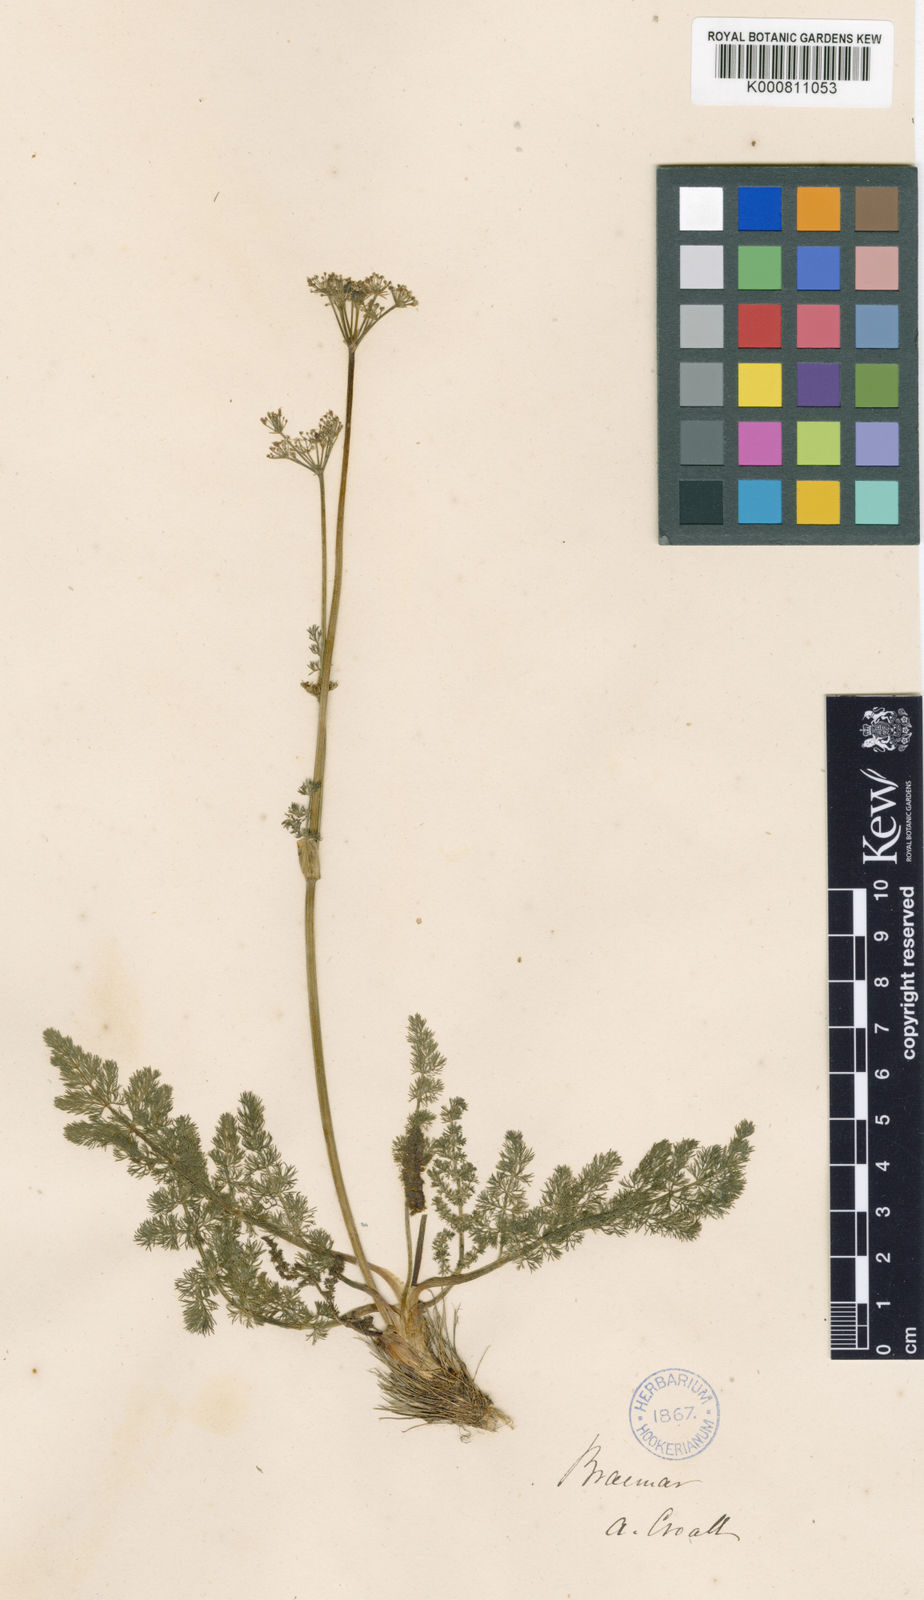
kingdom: Plantae
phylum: Tracheophyta
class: Magnoliopsida
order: Apiales
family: Apiaceae
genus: Meum
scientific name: Meum athamanticum
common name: Spignel
